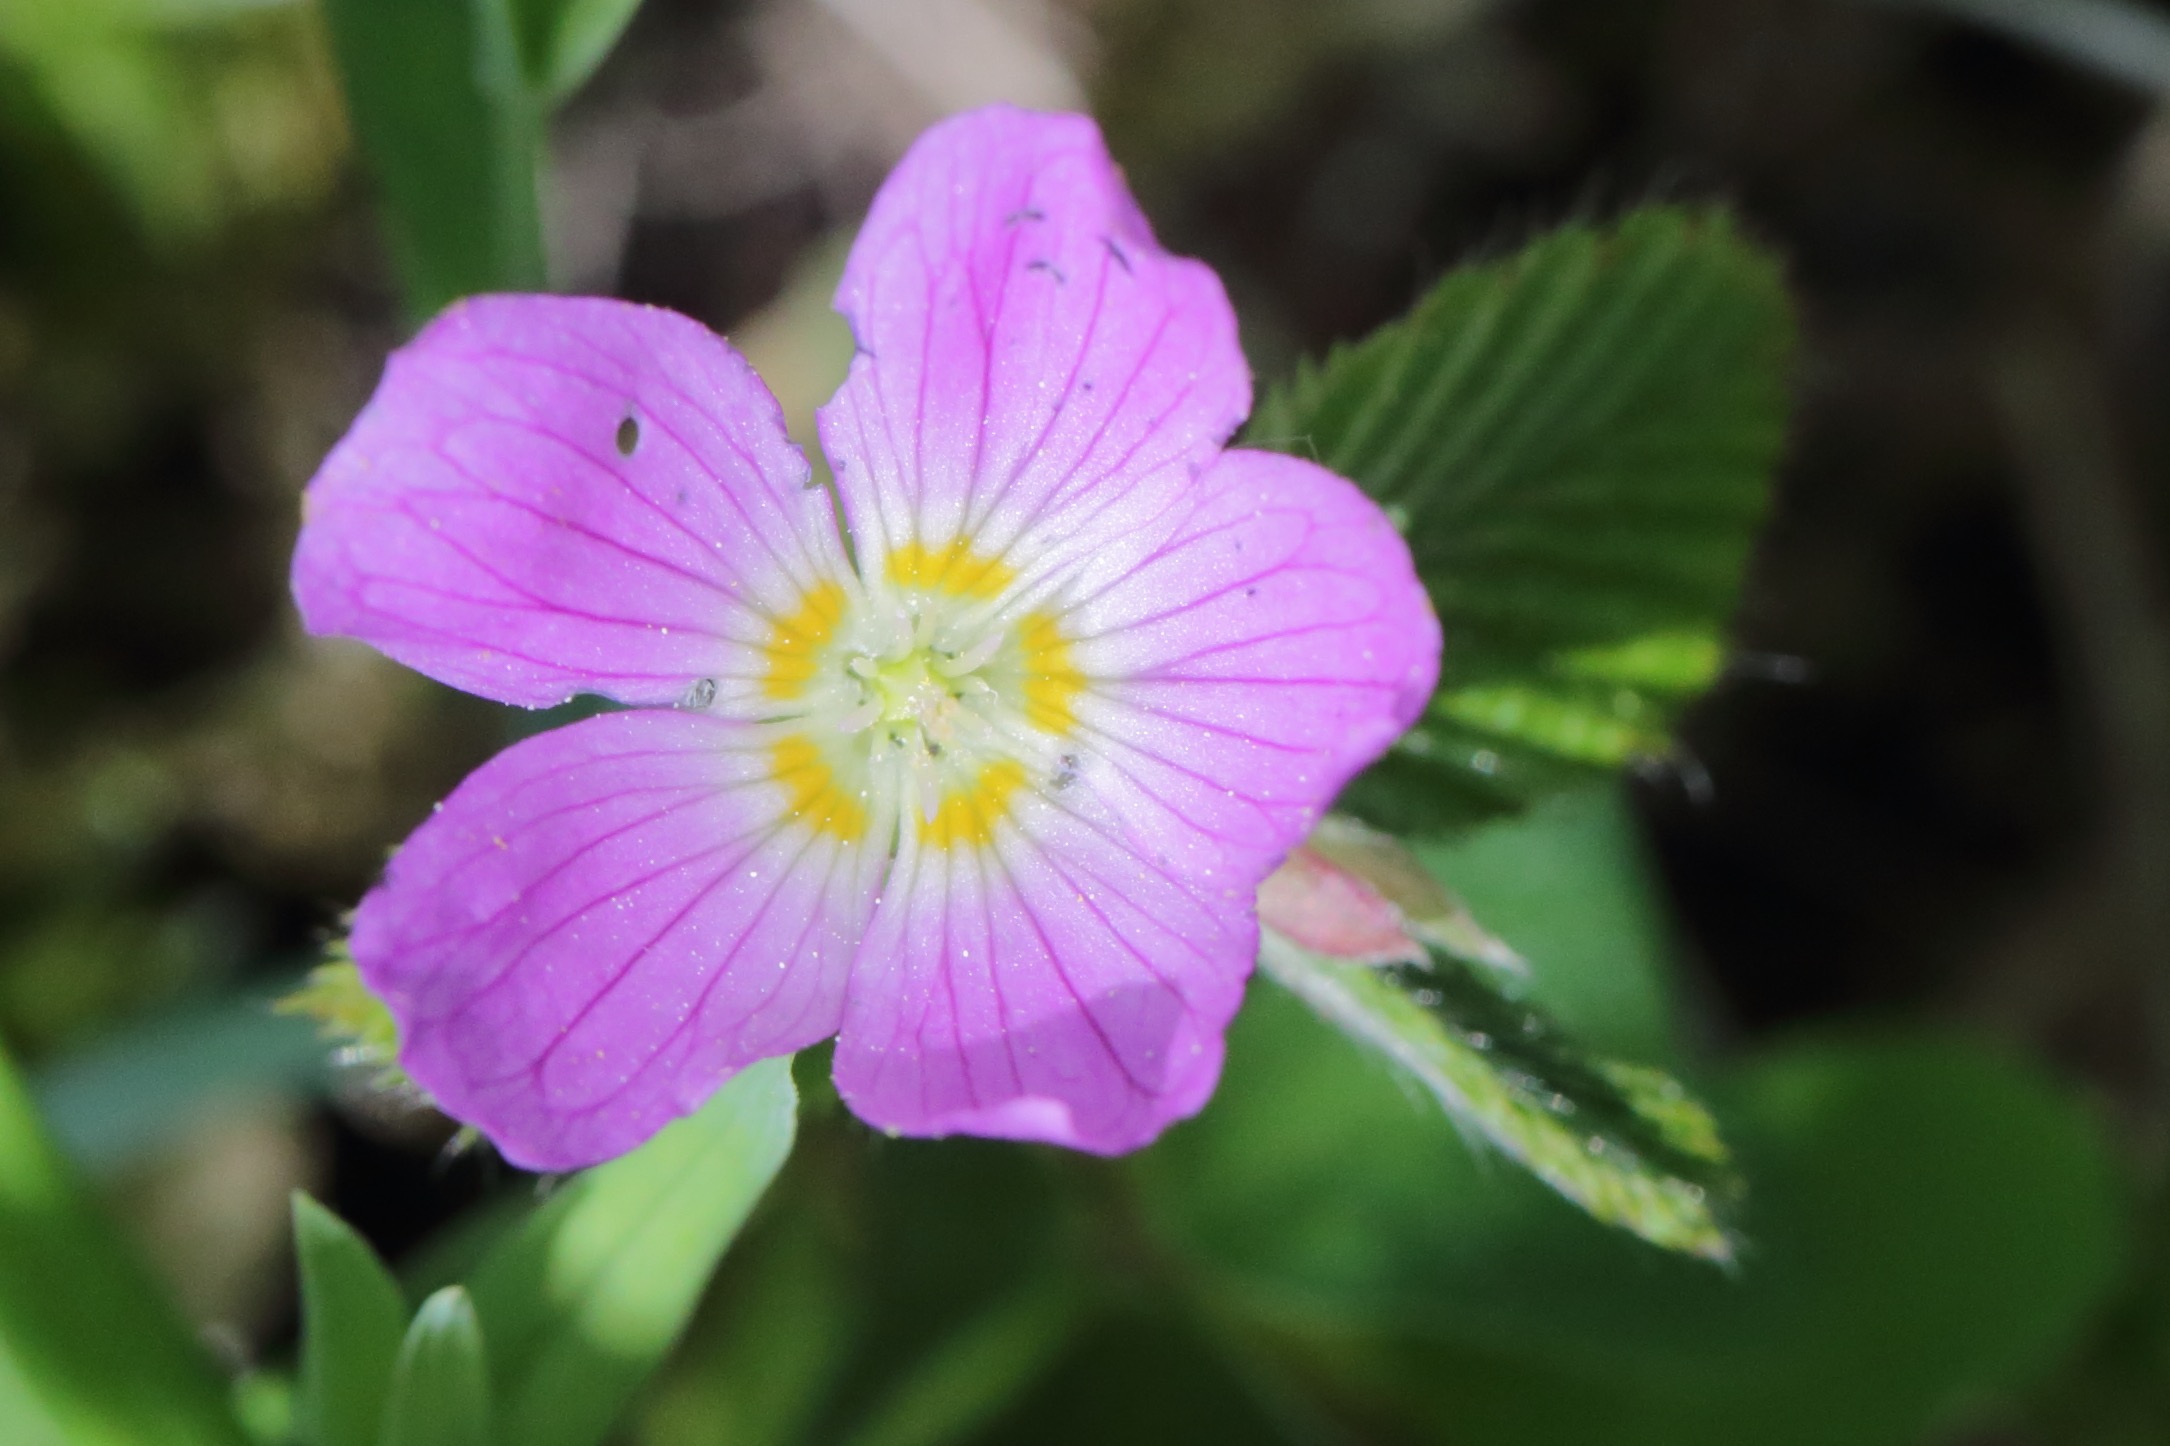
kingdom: Plantae
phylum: Tracheophyta
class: Magnoliopsida
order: Oxalidales
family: Oxalidaceae
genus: Oxalis
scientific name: Oxalis acetosella
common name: Skovsyre
